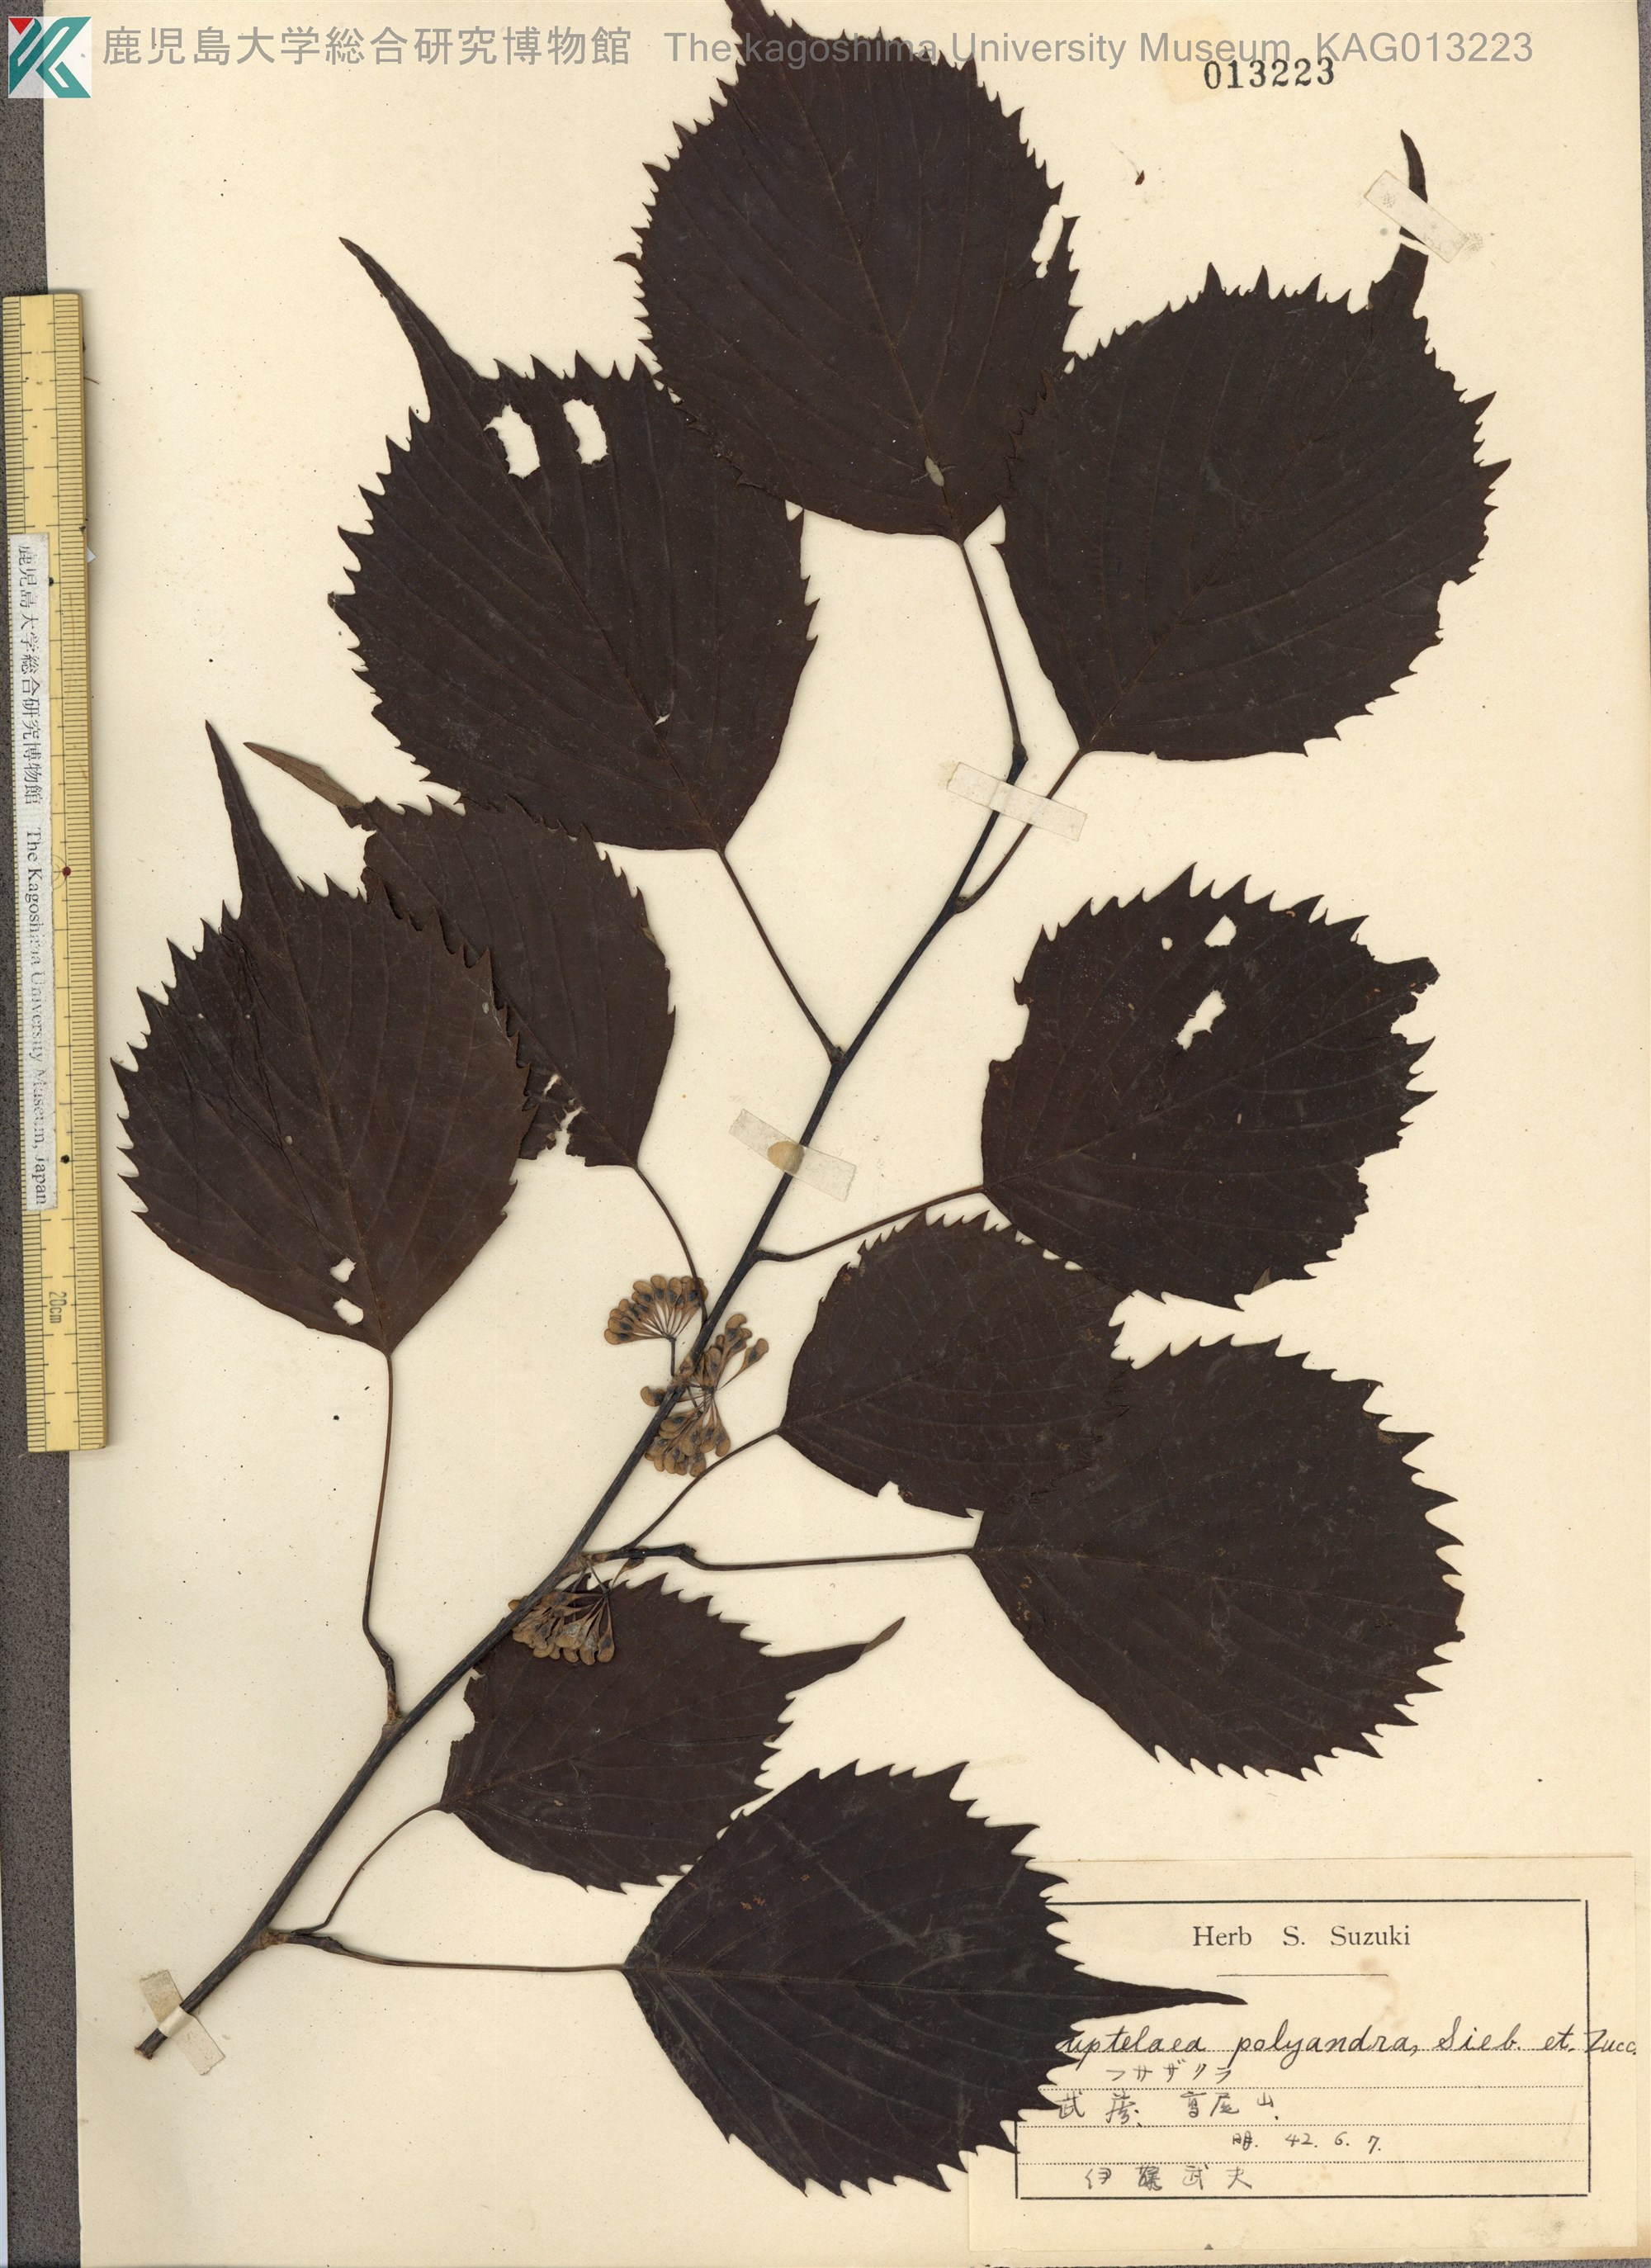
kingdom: Plantae
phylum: Tracheophyta
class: Magnoliopsida
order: Ranunculales
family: Eupteleaceae
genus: Euptelea
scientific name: Euptelea polyandra
